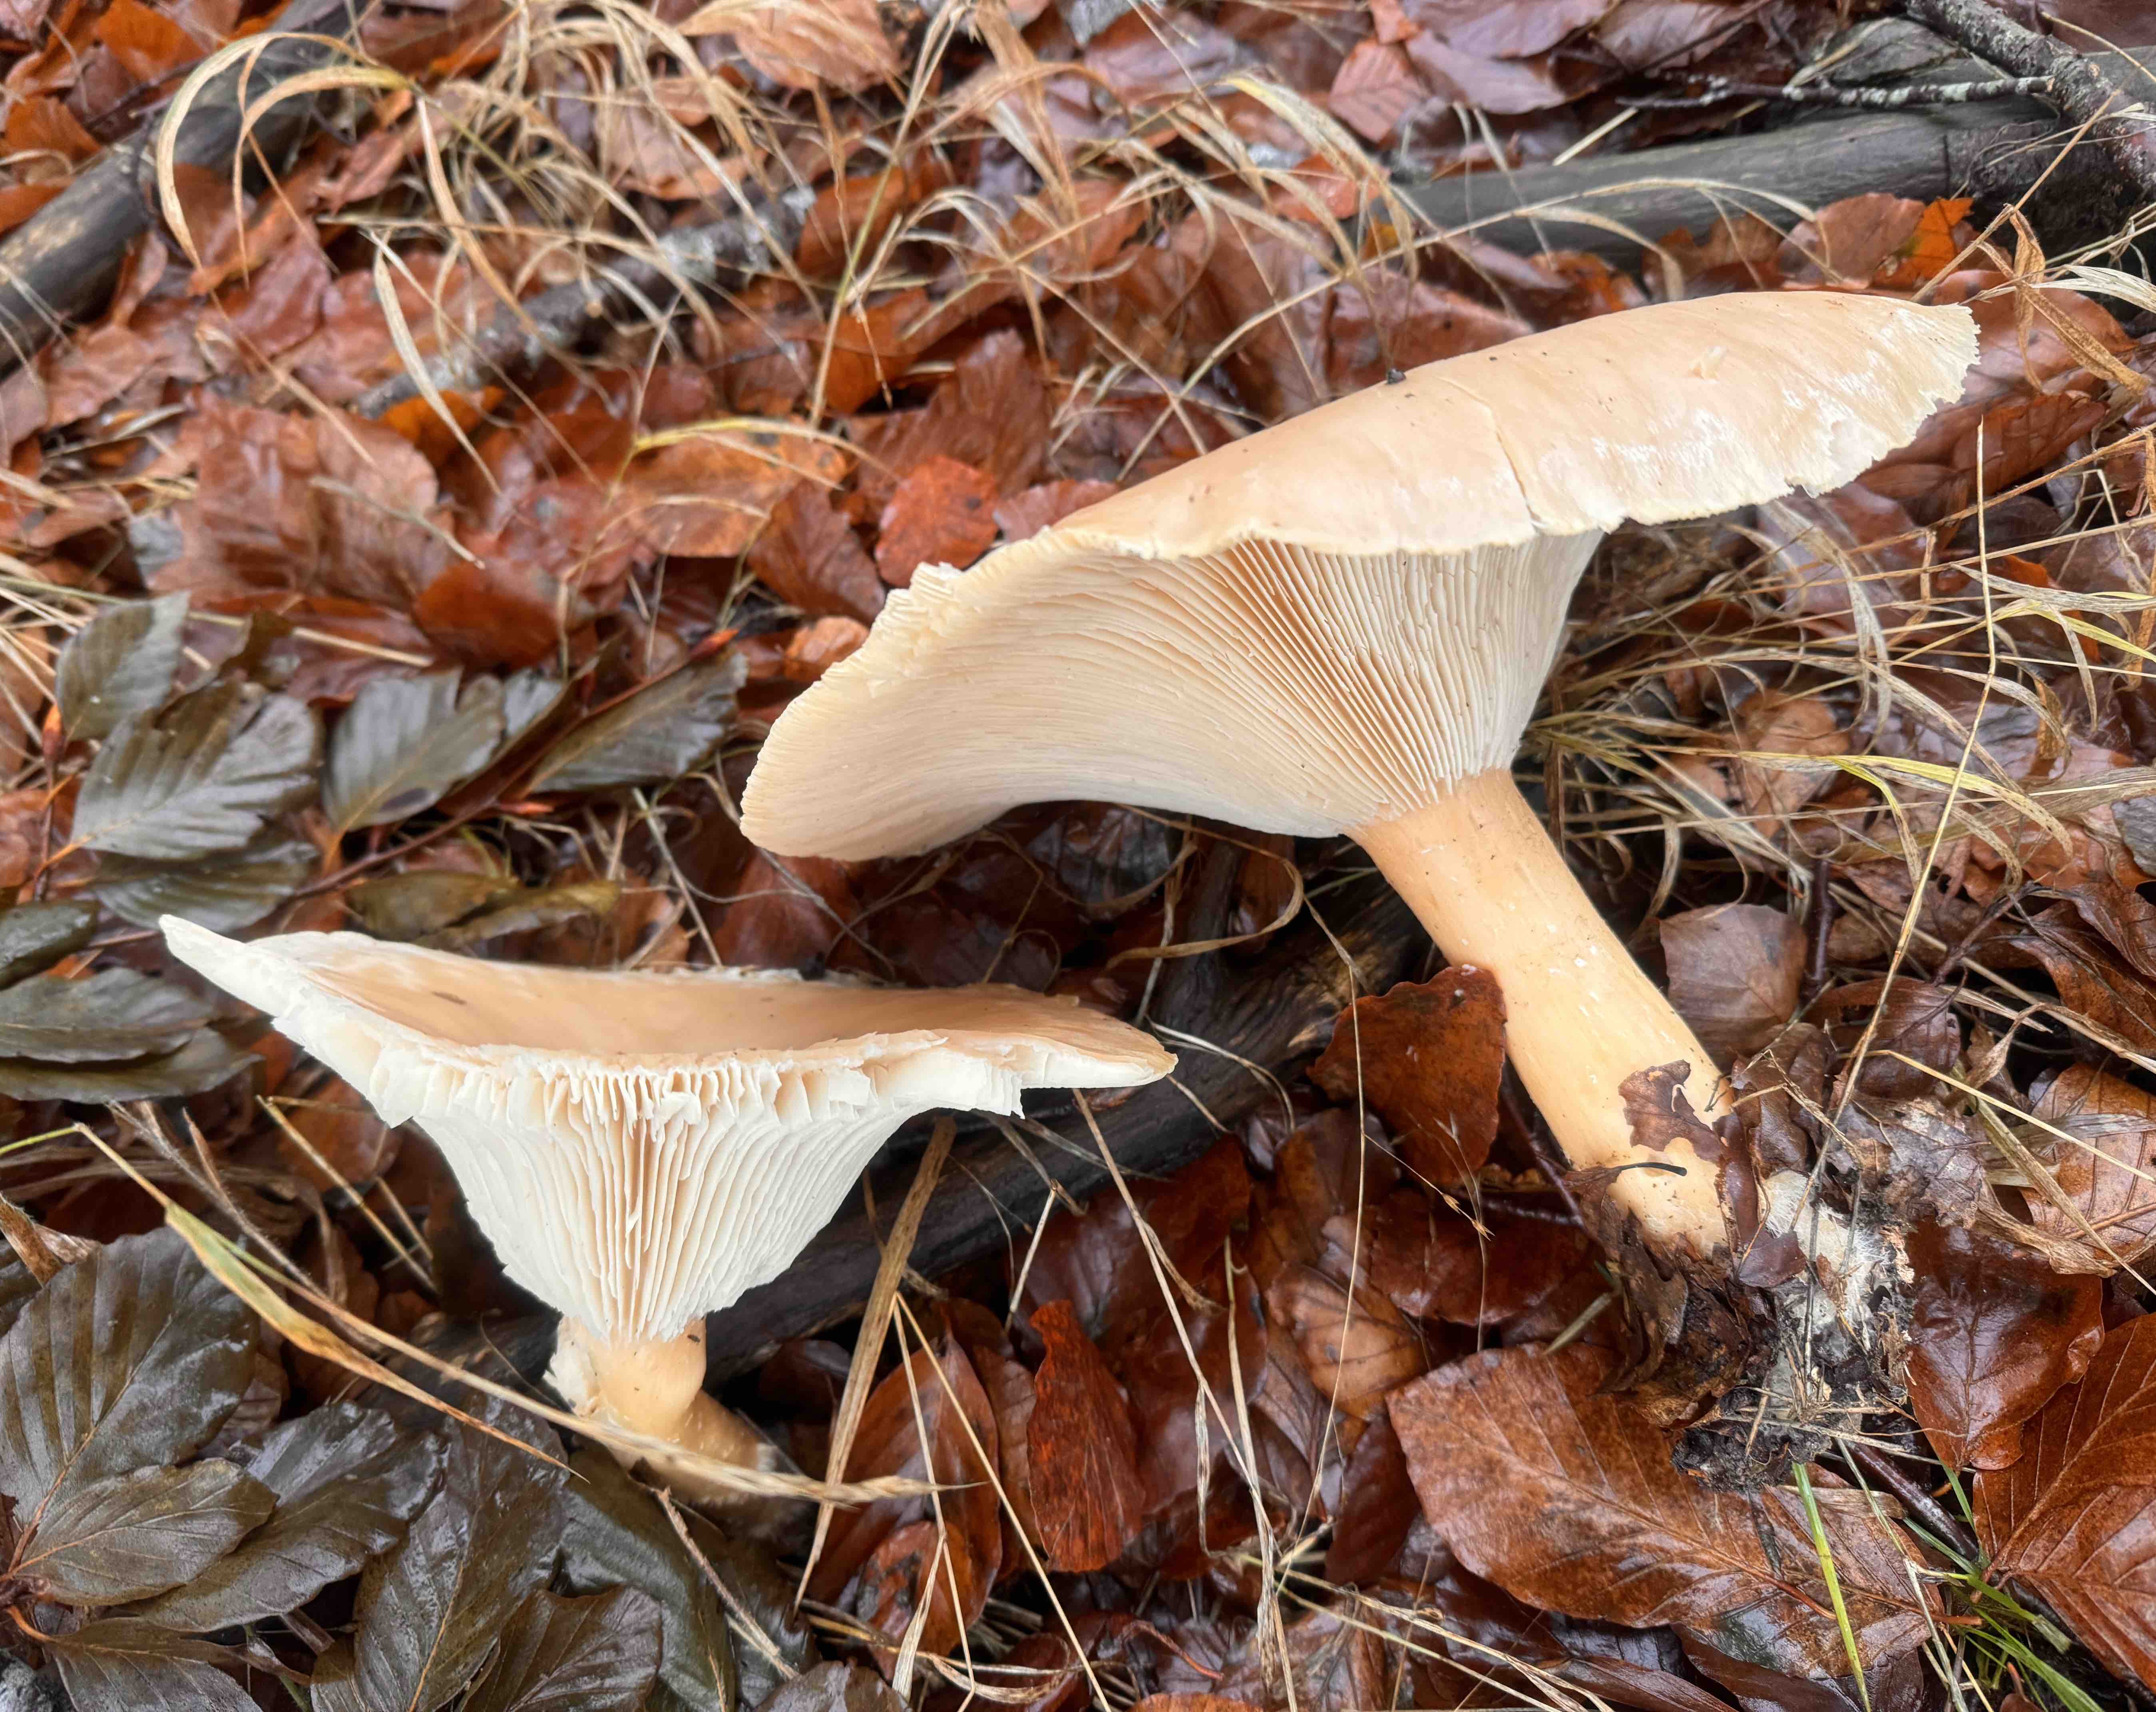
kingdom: Fungi
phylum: Basidiomycota
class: Agaricomycetes
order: Agaricales
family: Tricholomataceae
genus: Infundibulicybe
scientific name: Infundibulicybe geotropa
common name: stor tragthat
